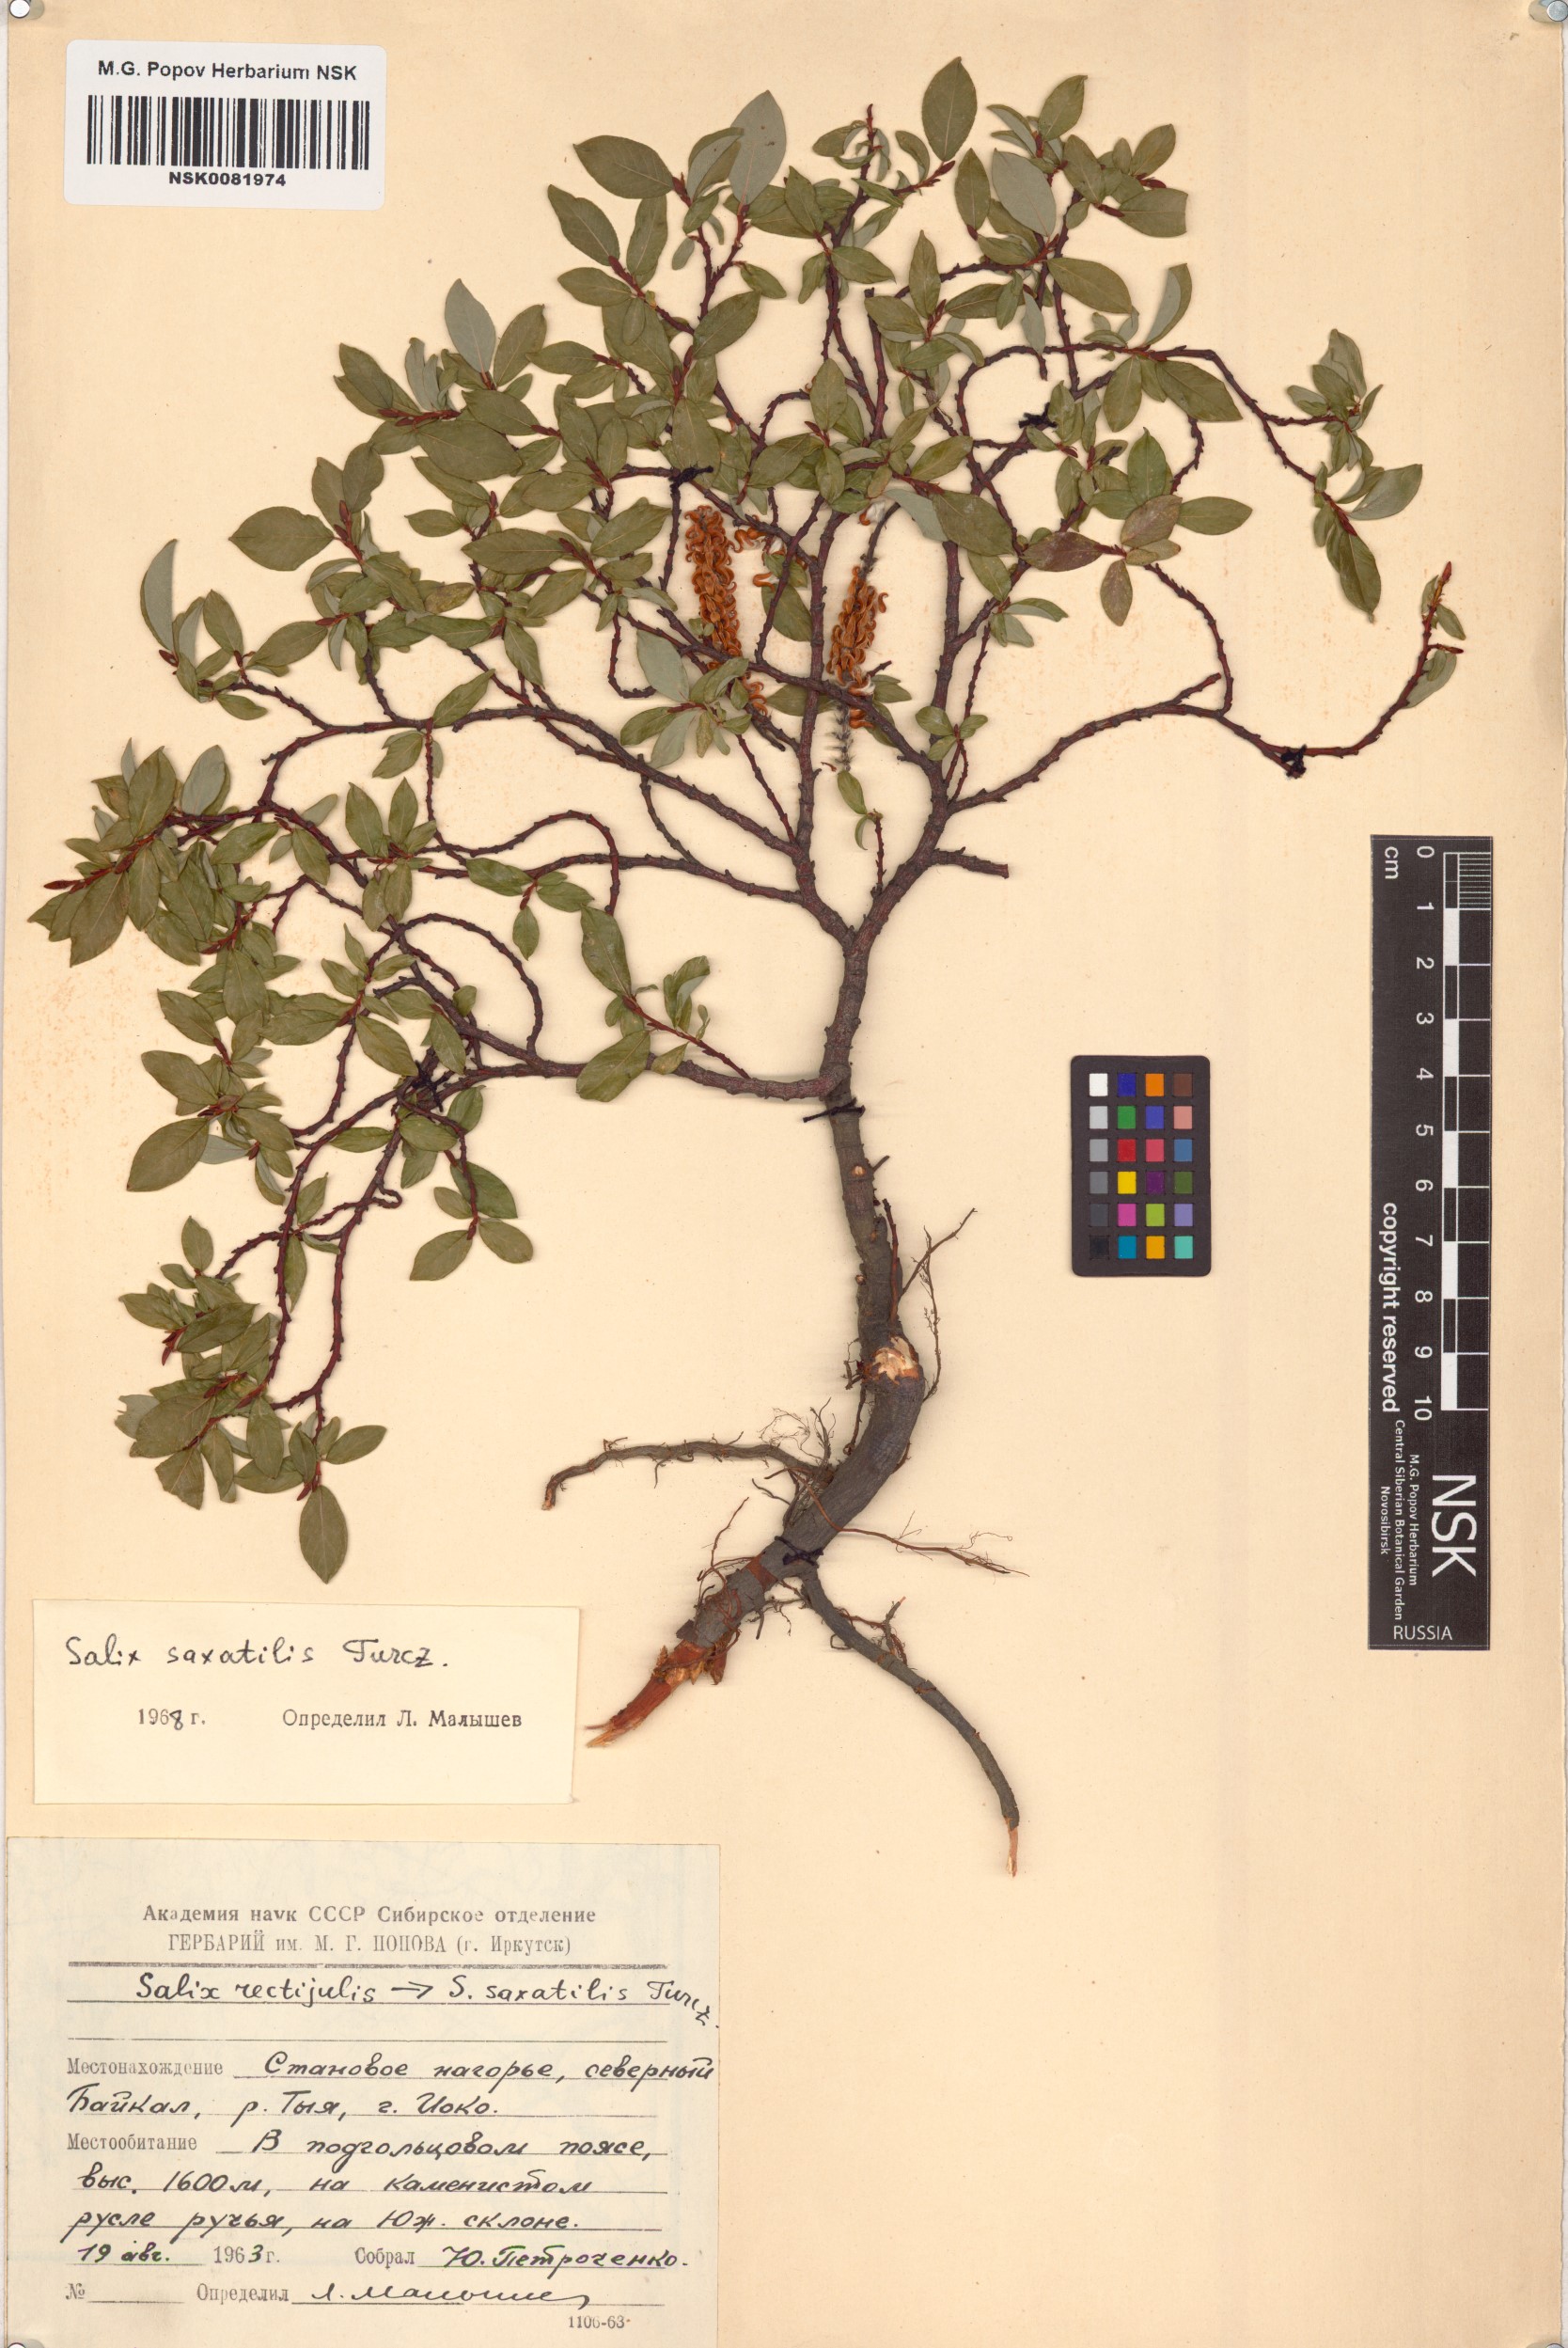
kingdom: Plantae
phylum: Tracheophyta
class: Magnoliopsida
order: Malpighiales
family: Salicaceae
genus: Salix
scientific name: Salix saxatilis
